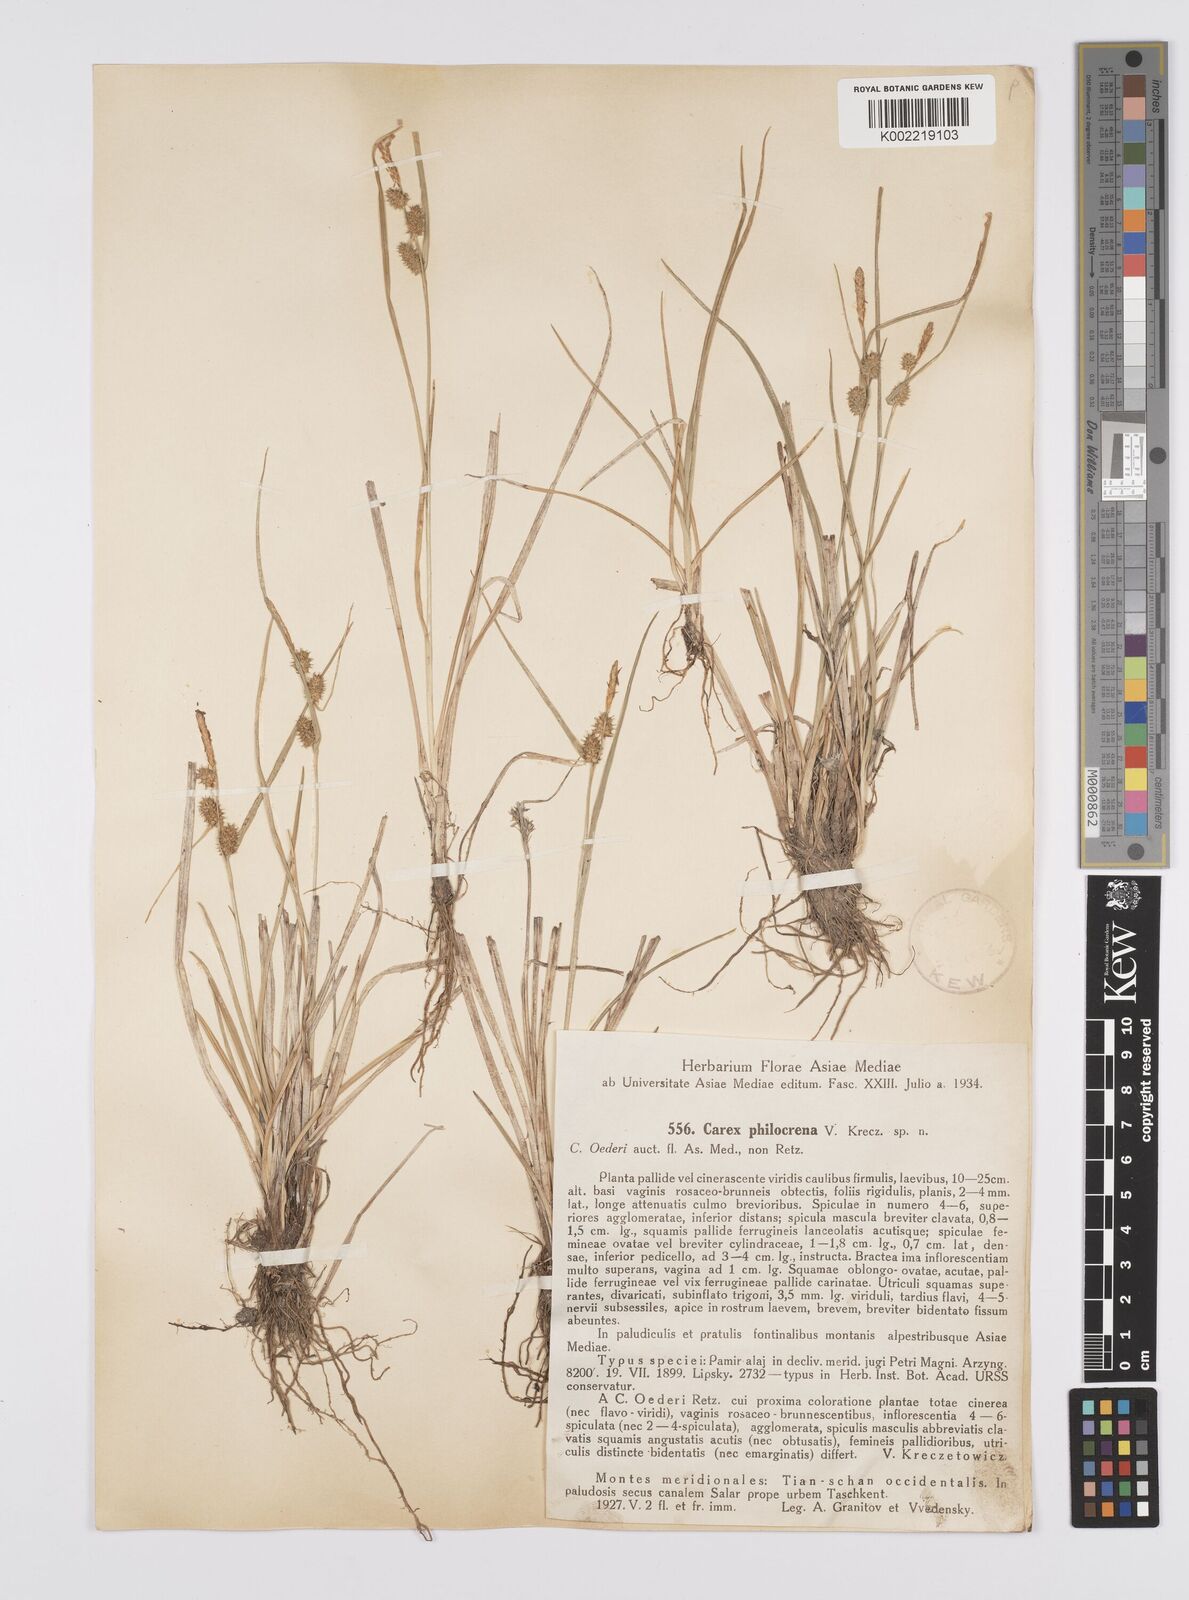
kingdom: Plantae
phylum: Tracheophyta
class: Liliopsida
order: Poales
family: Cyperaceae
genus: Carex
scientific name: Carex oederi
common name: Common & small-fruited yellow-sedge
